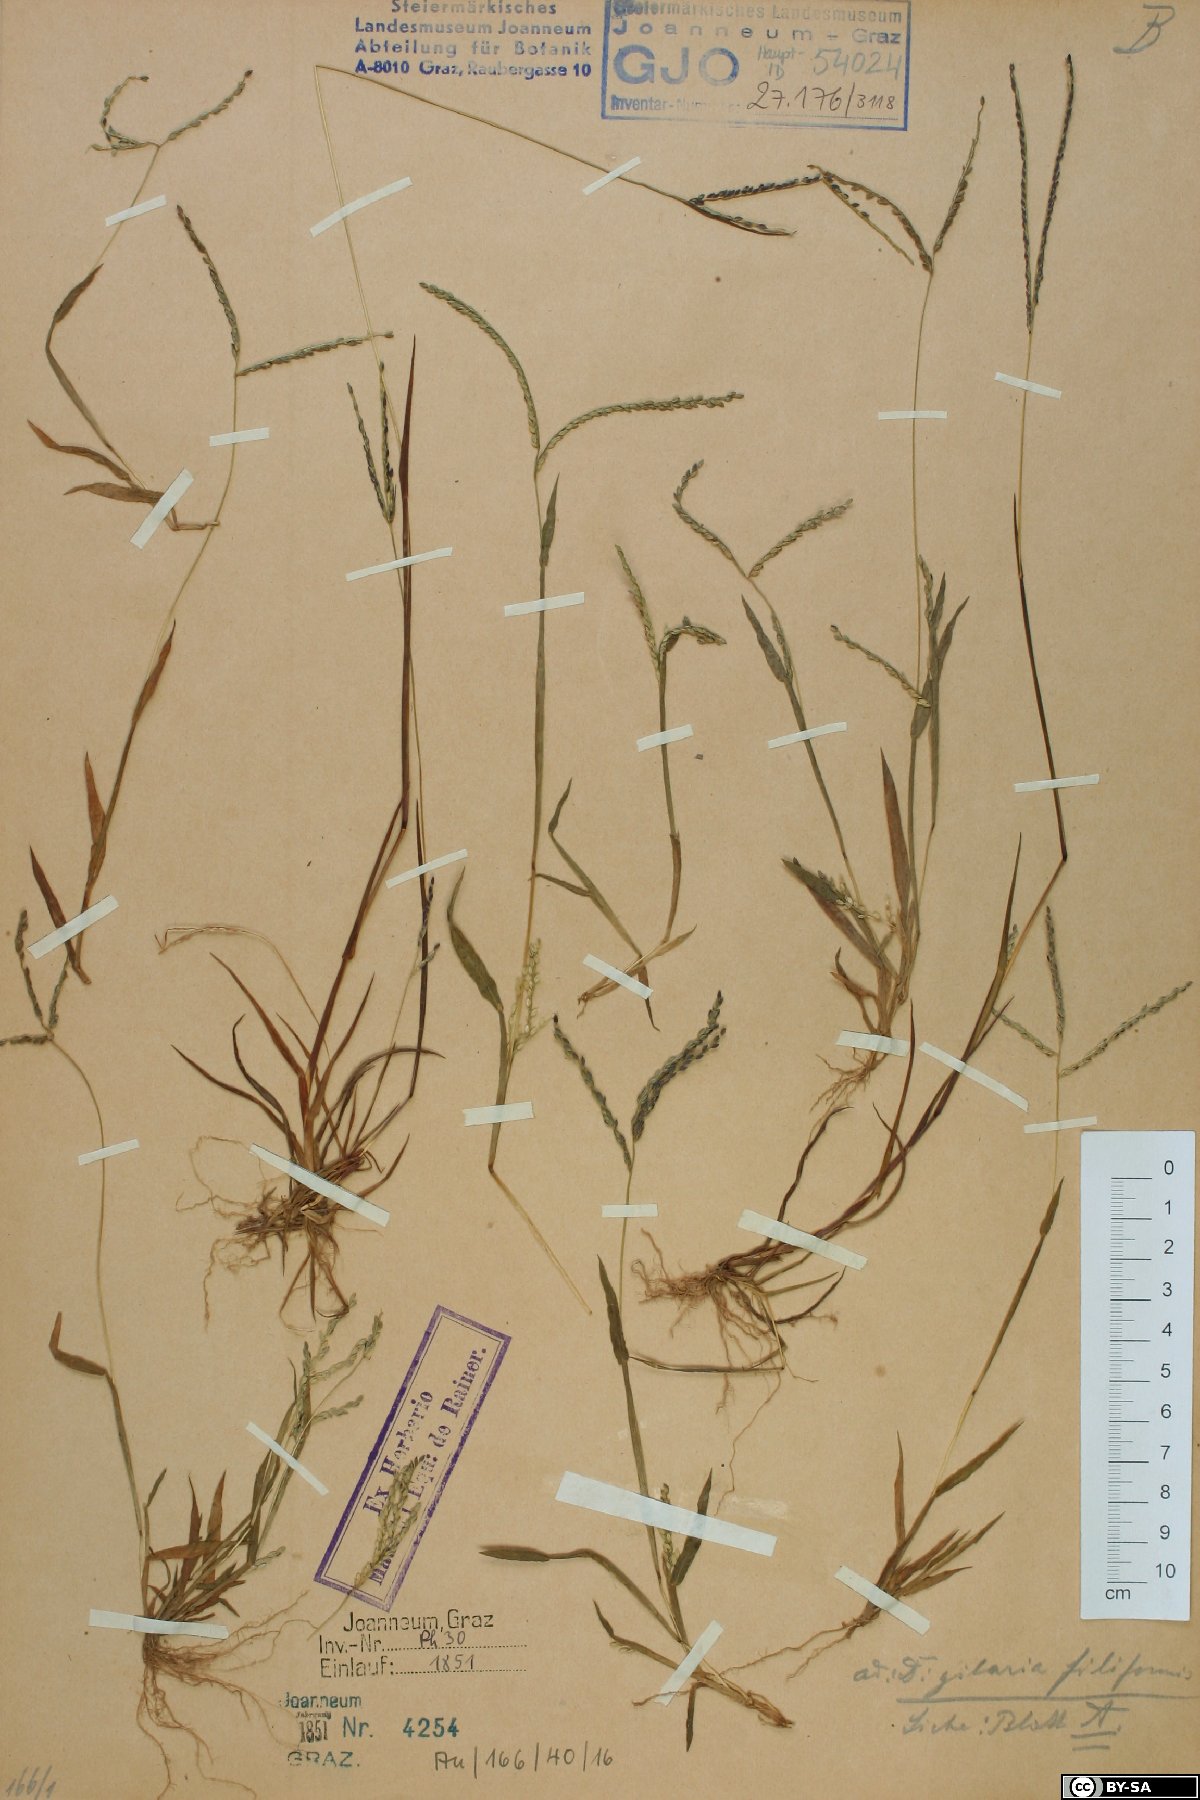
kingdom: Plantae
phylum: Tracheophyta
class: Liliopsida
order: Poales
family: Poaceae
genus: Digitaria
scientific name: Digitaria filiformis
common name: Slender crabgrass
